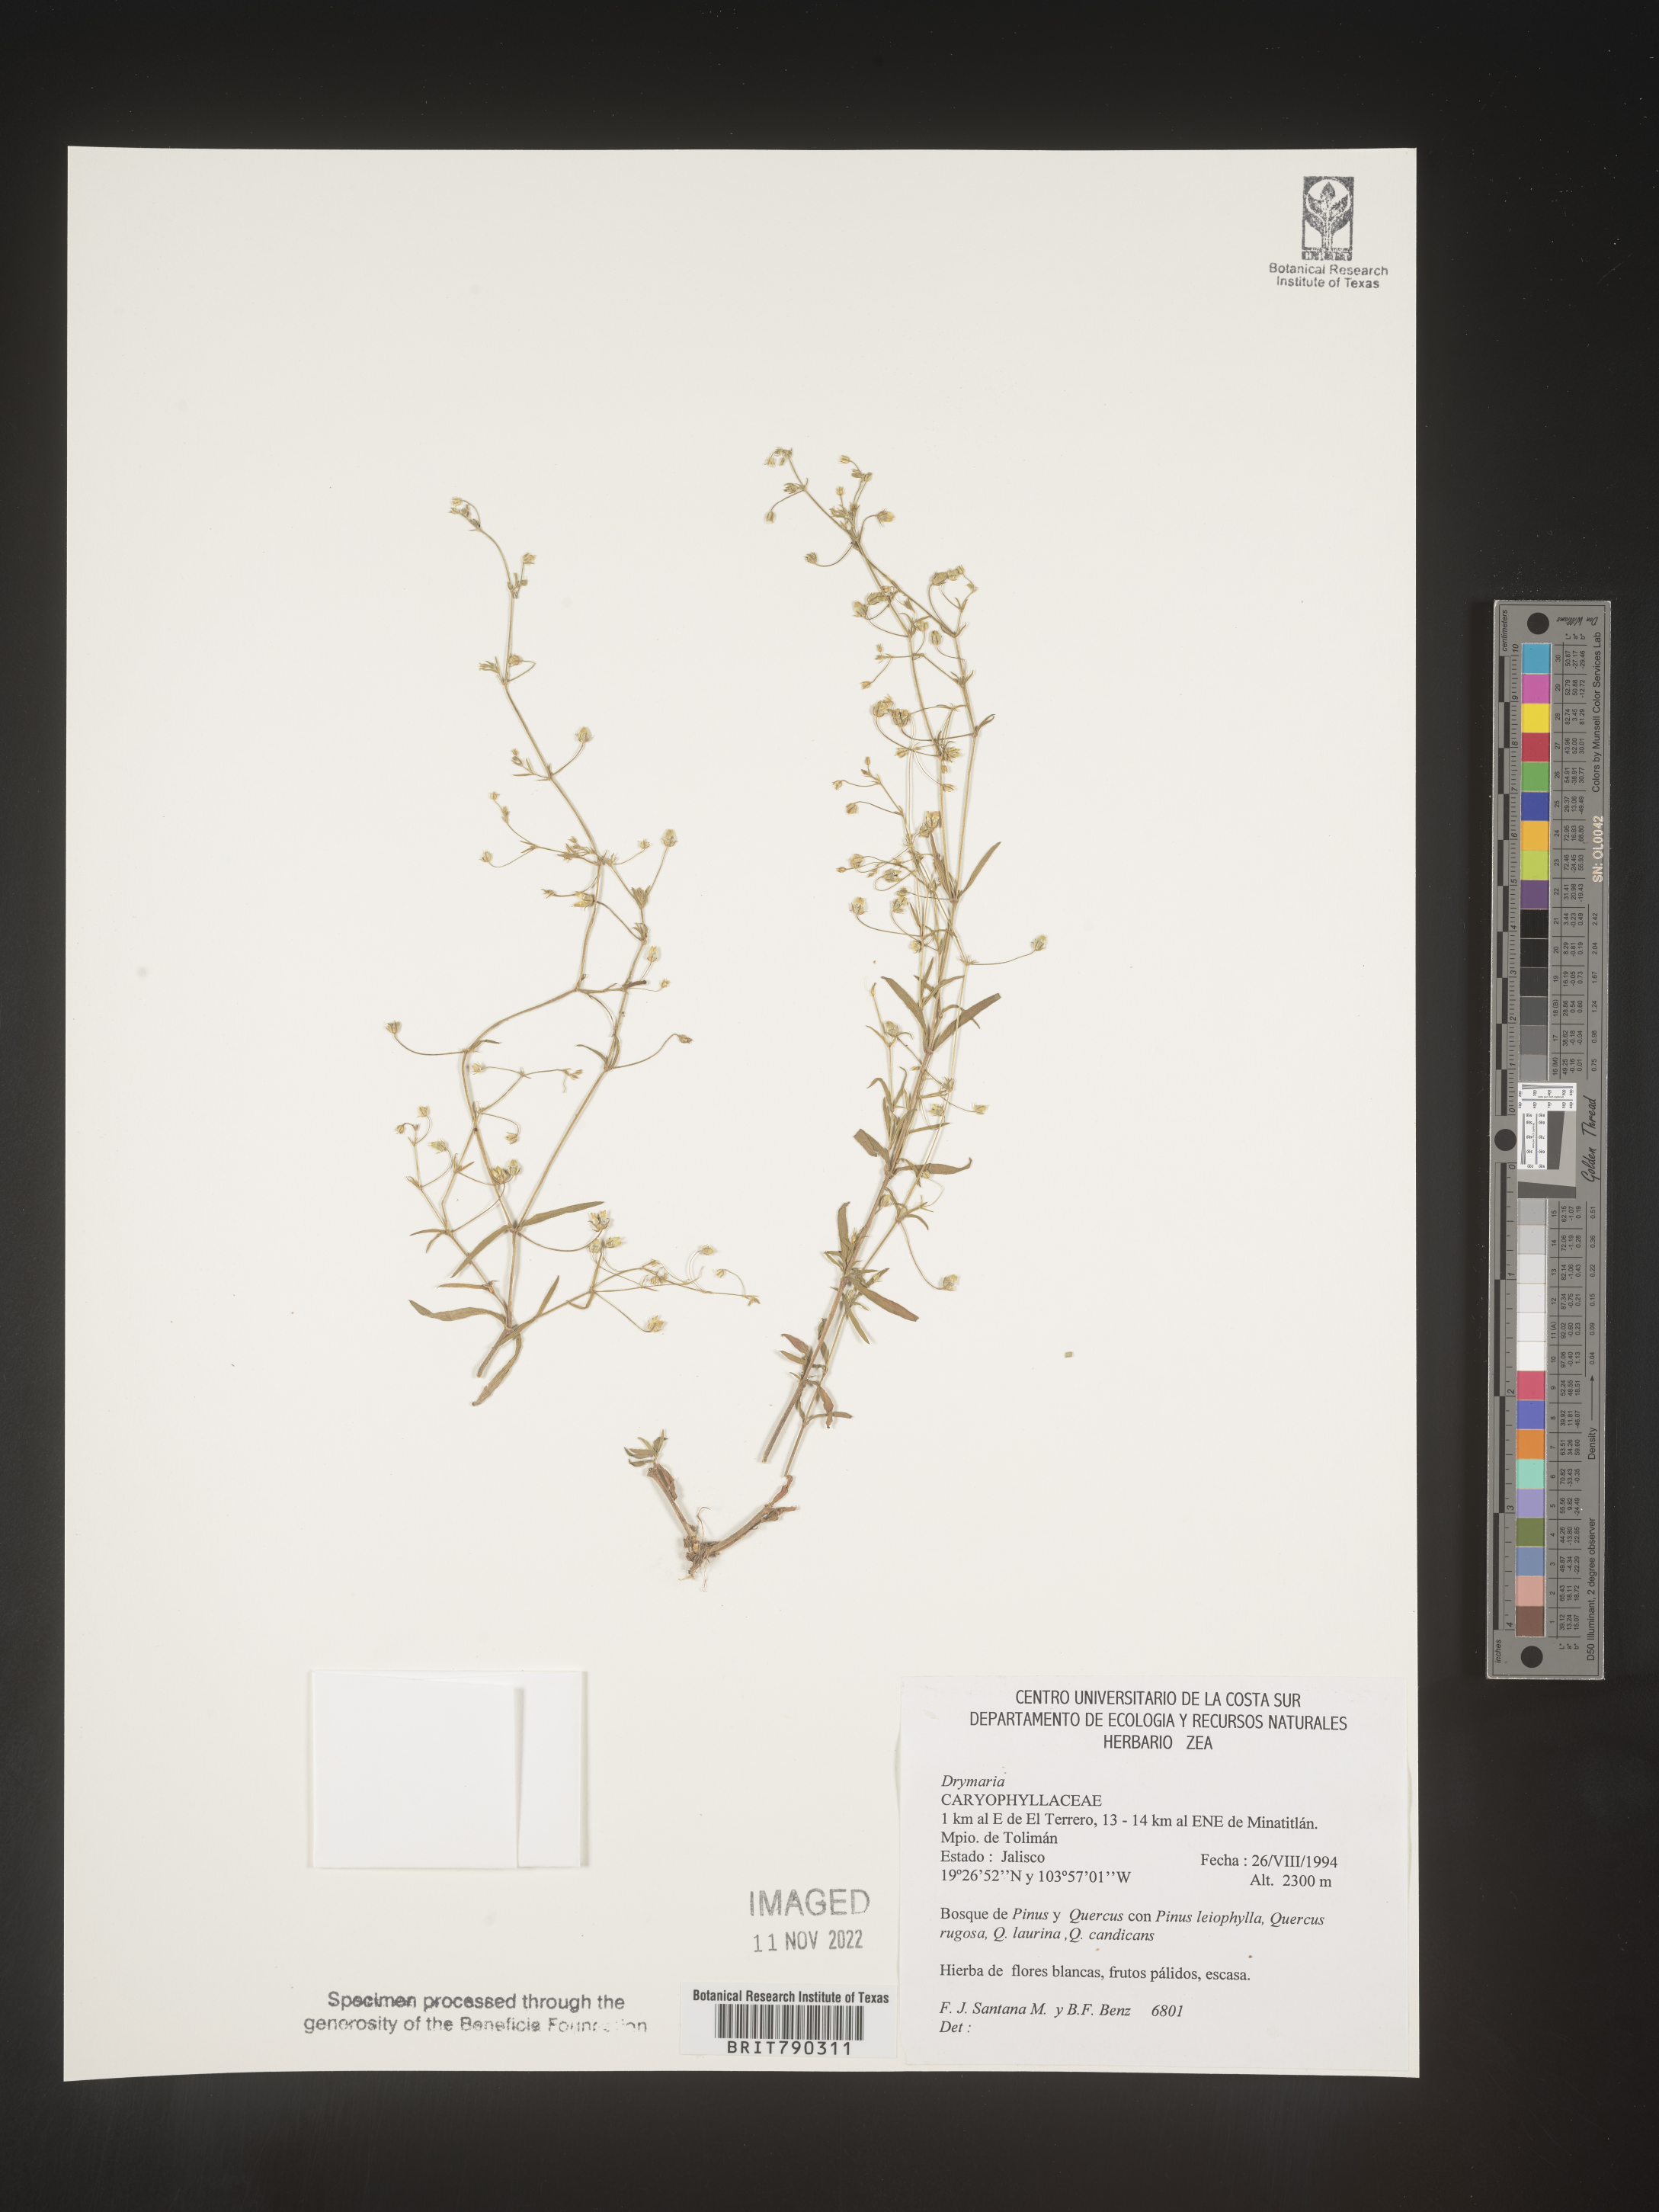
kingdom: Plantae
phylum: Tracheophyta
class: Magnoliopsida
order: Caryophyllales
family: Caryophyllaceae
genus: Drymaria
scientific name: Drymaria
